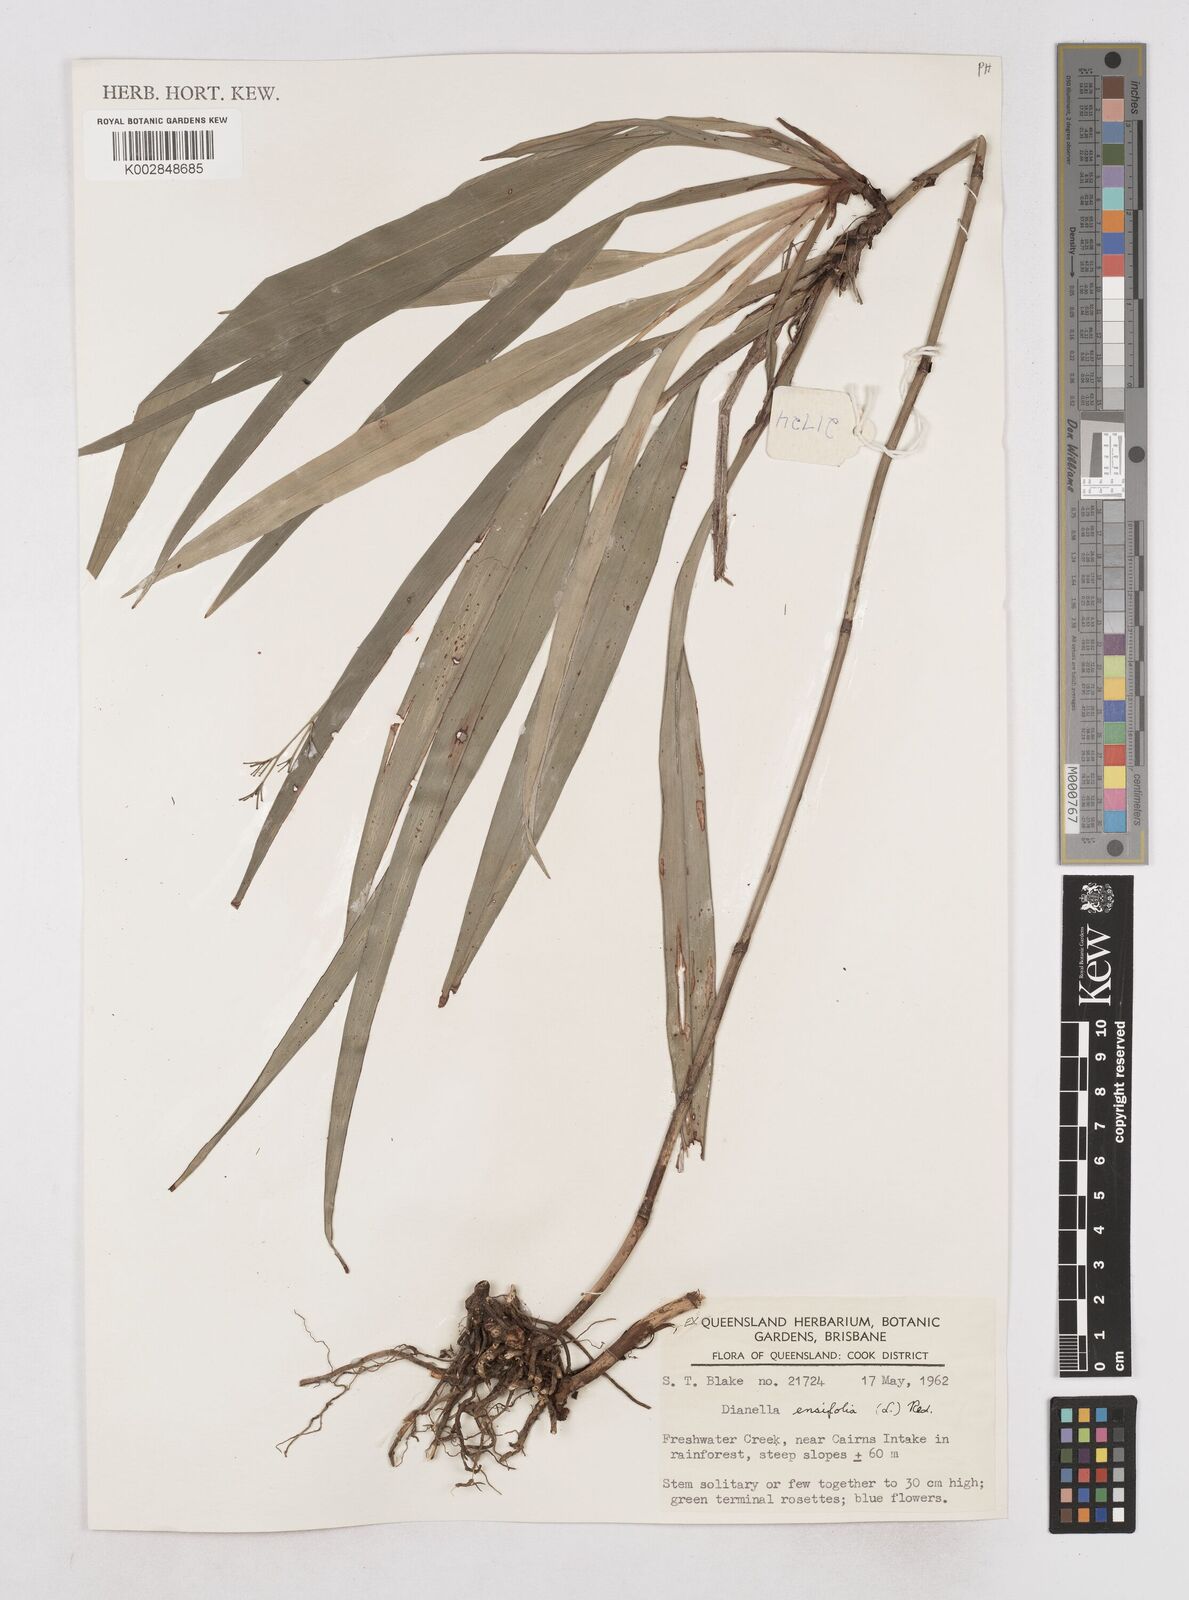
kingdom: Plantae
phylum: Tracheophyta
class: Liliopsida
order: Asparagales
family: Asphodelaceae
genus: Dianella
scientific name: Dianella ensifolia
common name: New zealand lilyplant
